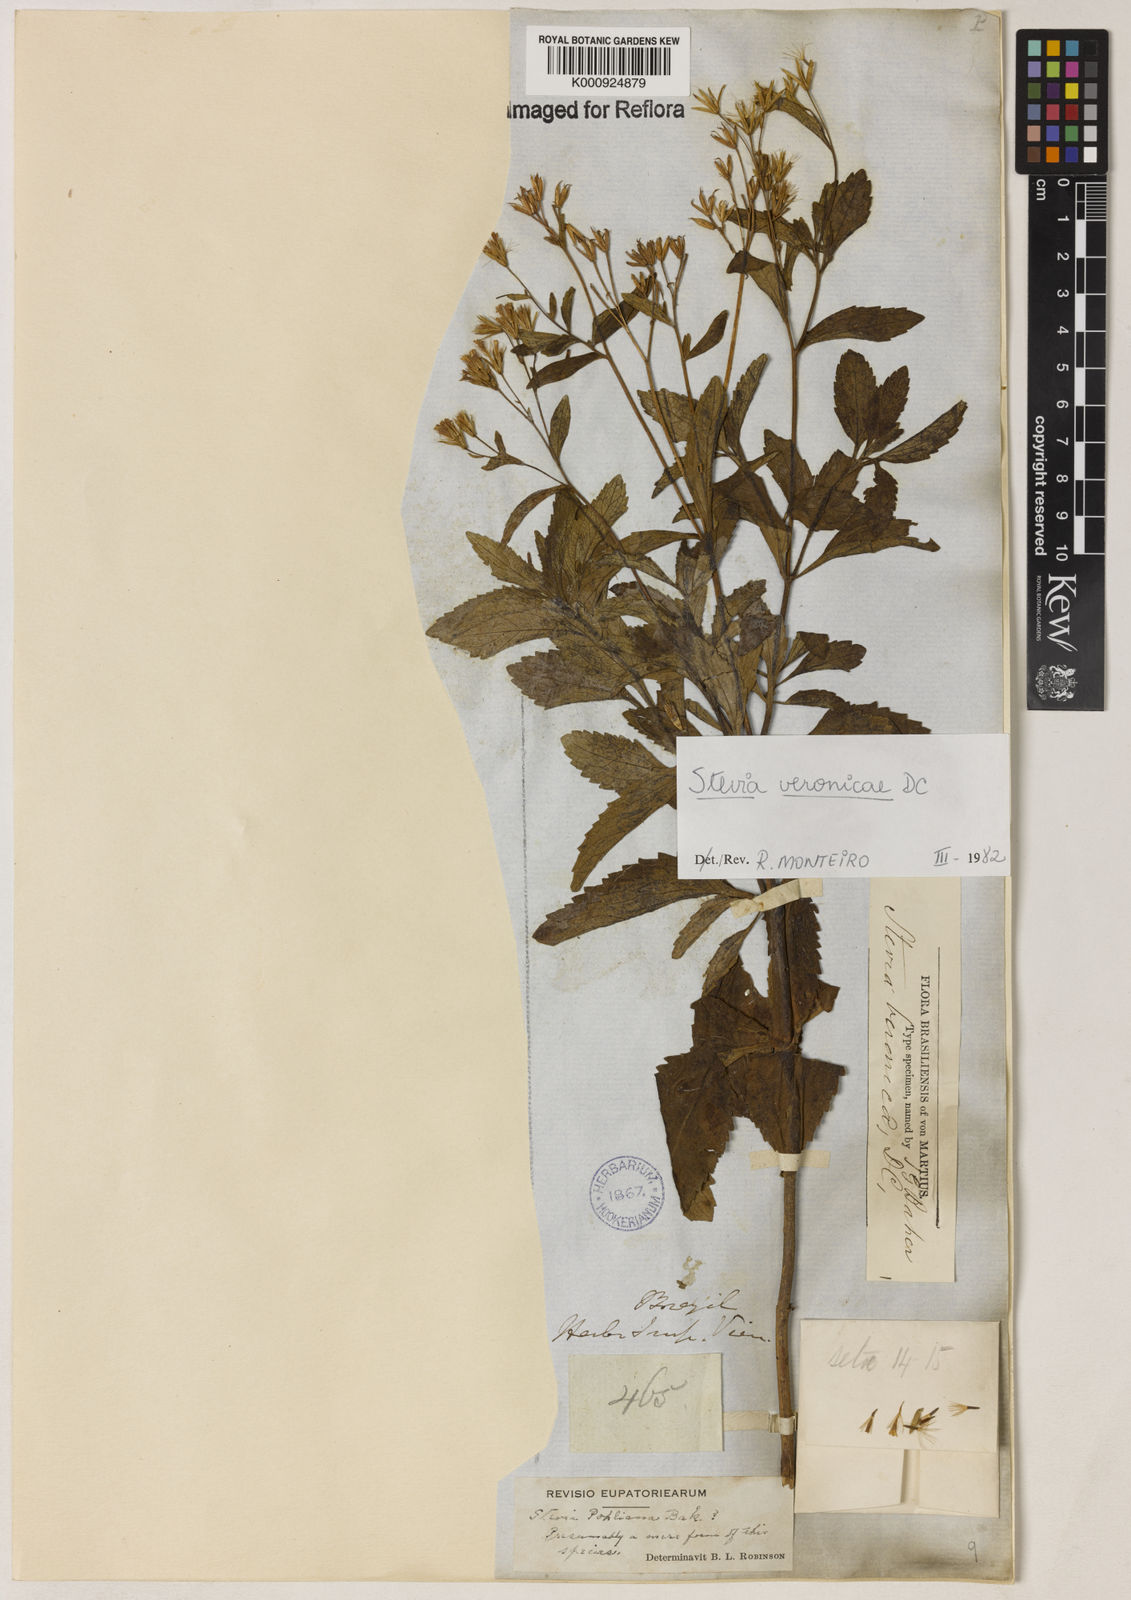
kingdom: Plantae
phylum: Tracheophyta
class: Magnoliopsida
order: Asterales
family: Asteraceae
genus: Stevia
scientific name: Stevia veronicae
